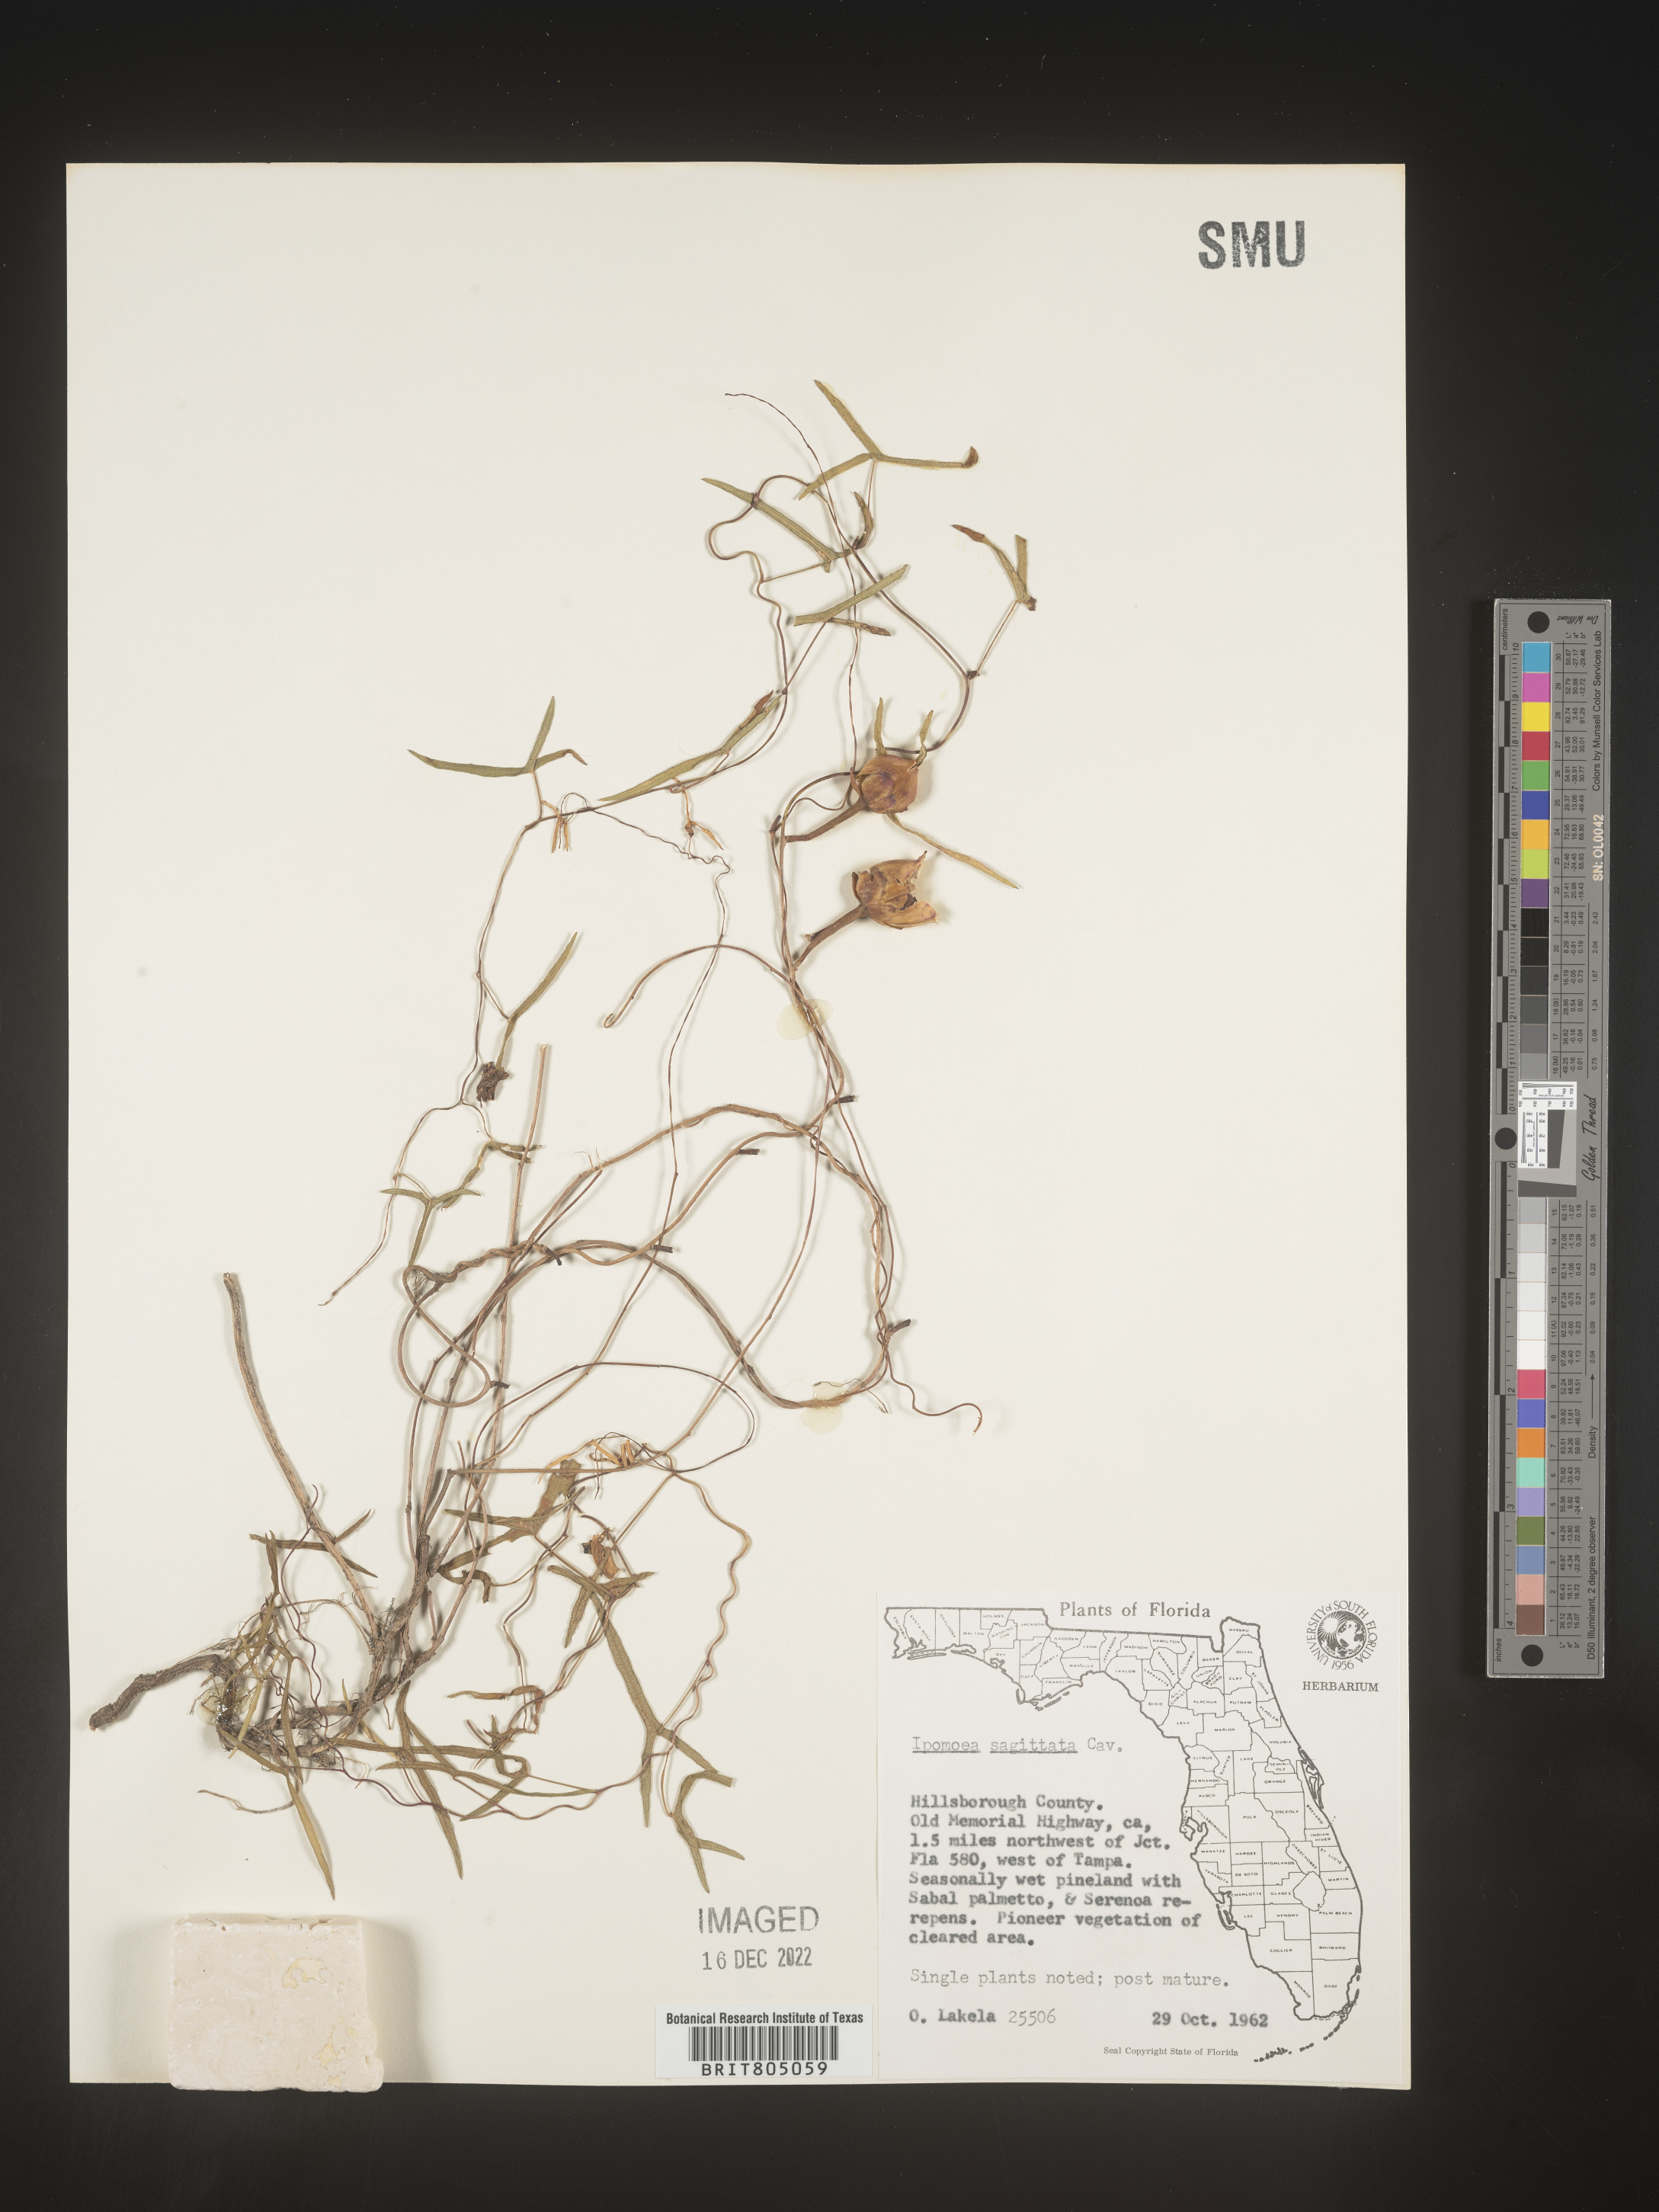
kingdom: Plantae
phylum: Tracheophyta
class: Magnoliopsida
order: Solanales
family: Convolvulaceae
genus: Ipomoea
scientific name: Ipomoea sinensis
